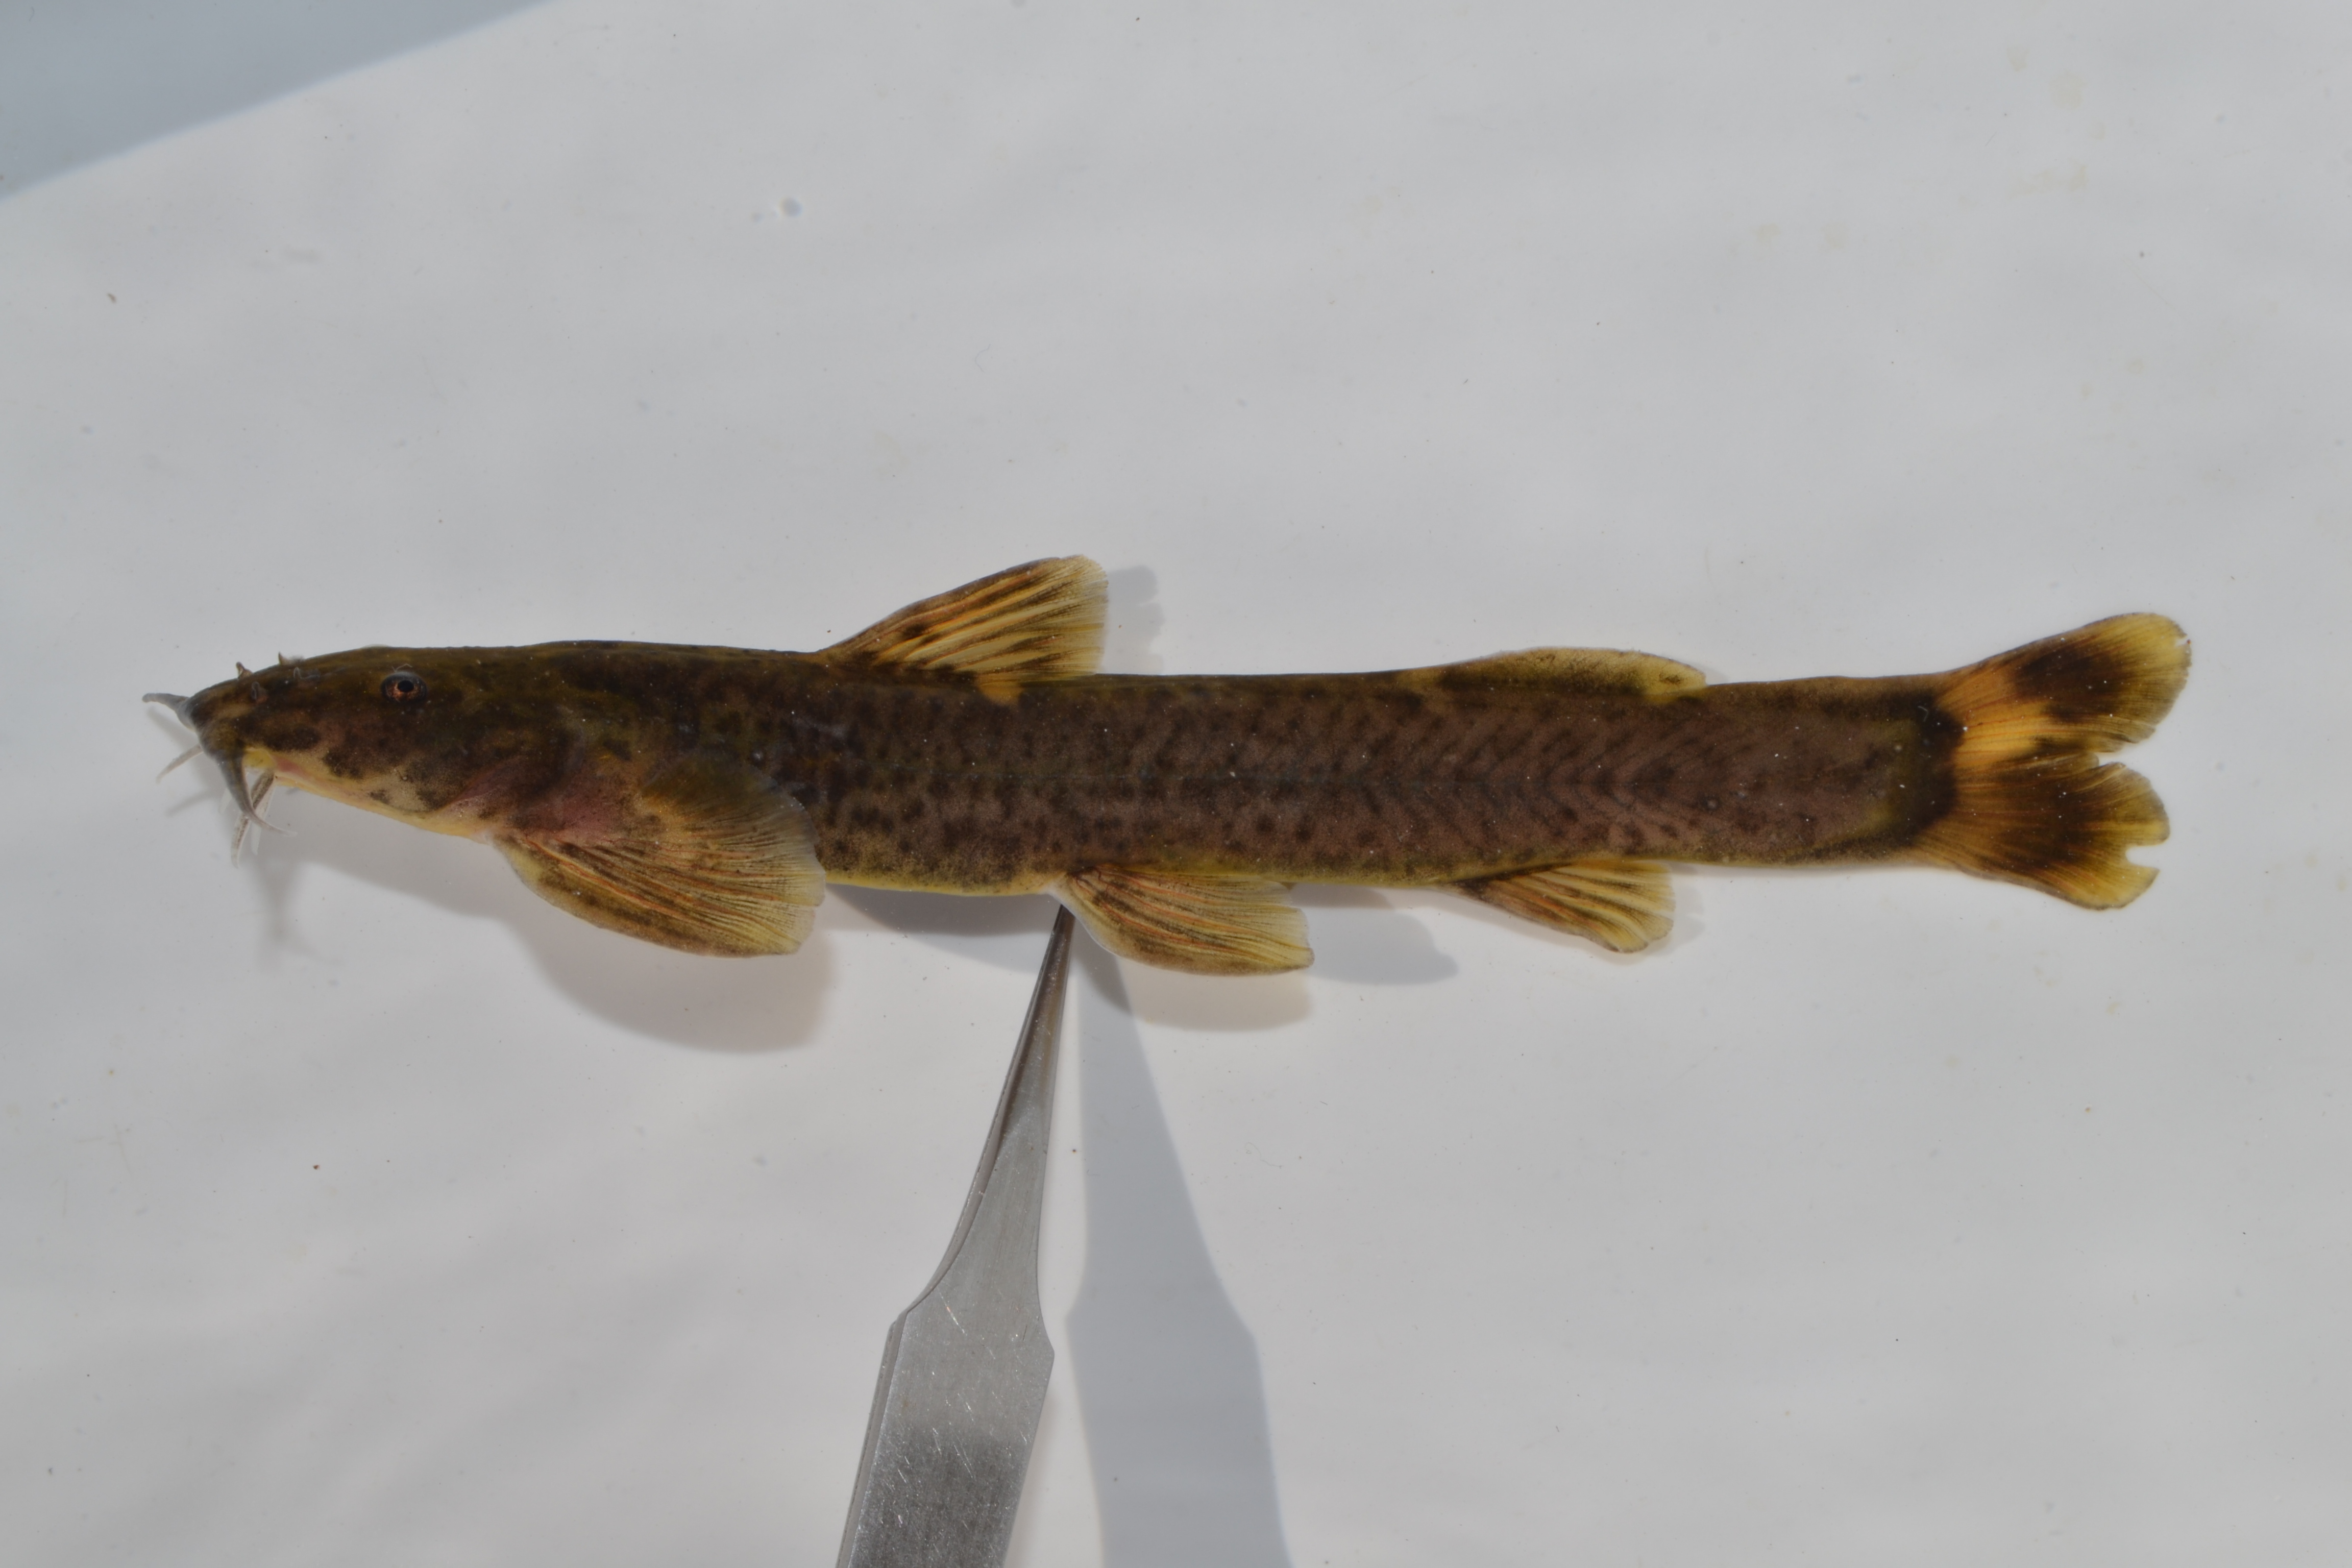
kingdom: Animalia
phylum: Chordata
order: Siluriformes
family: Amphiliidae
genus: Amphilius
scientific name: Amphilius natalensis
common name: Natal mountain catfish
